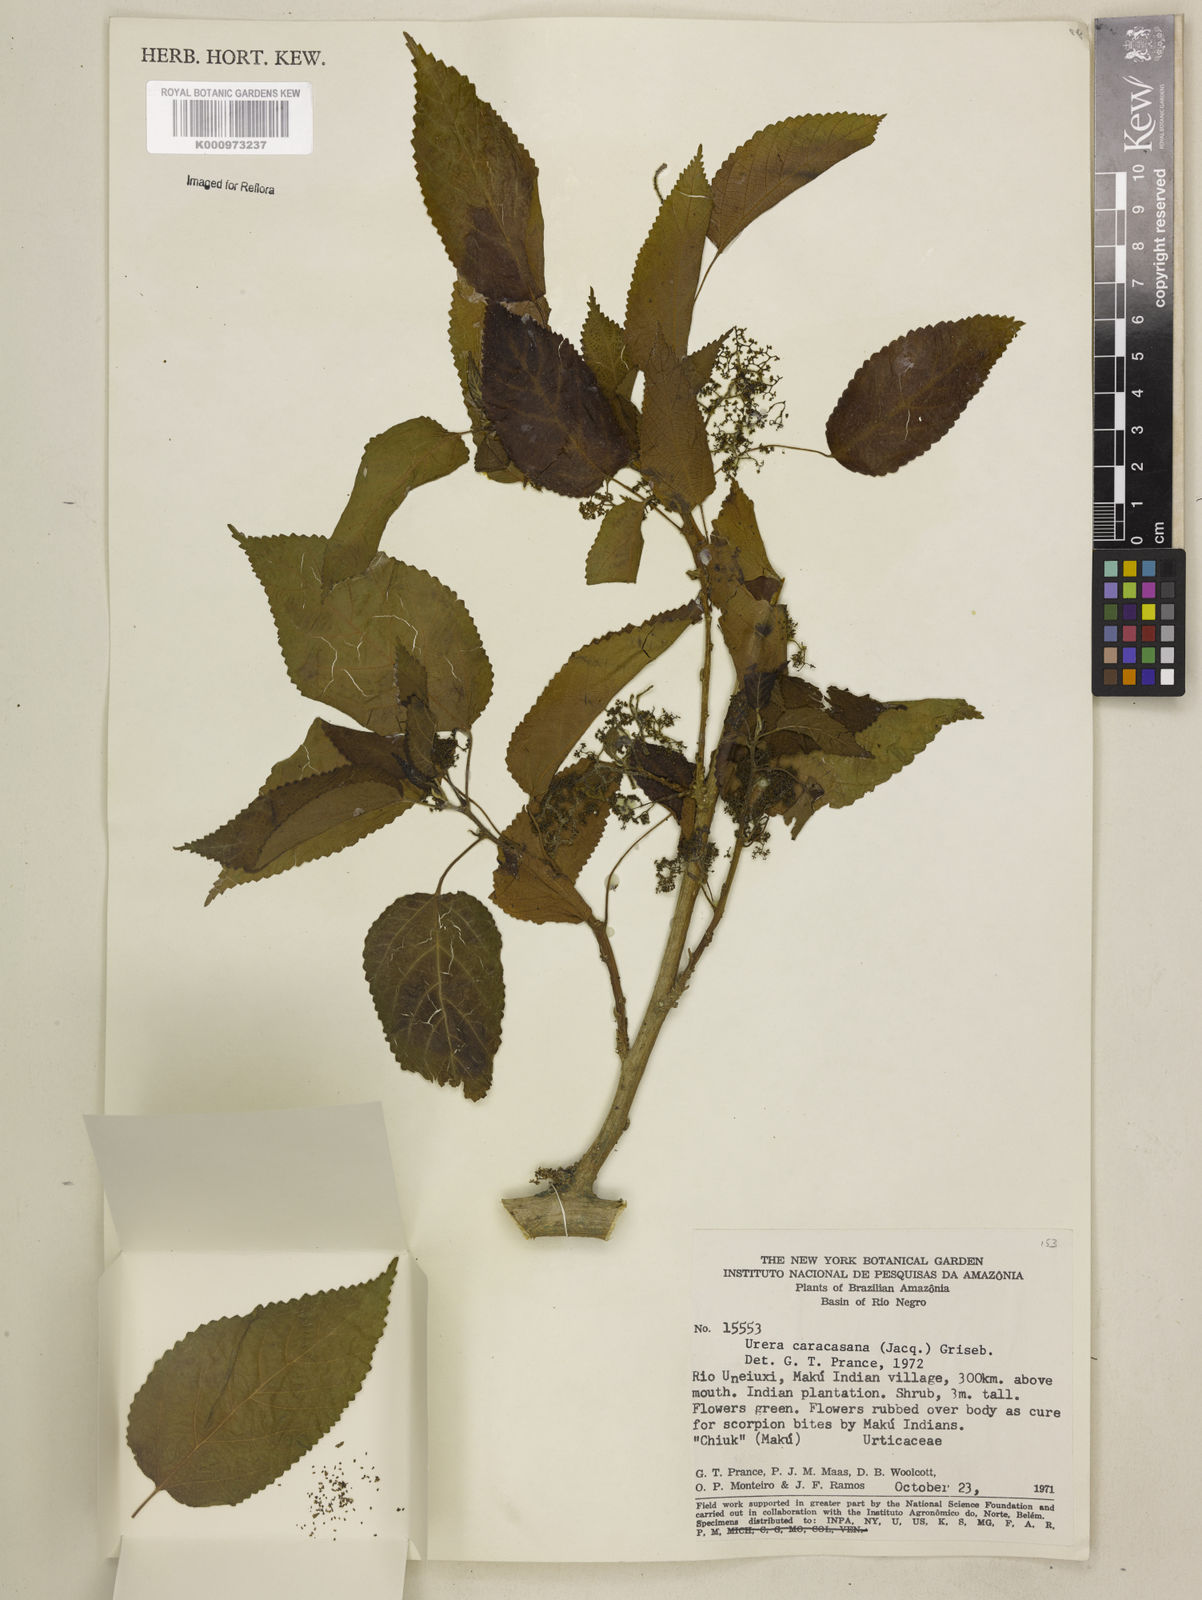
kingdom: Plantae
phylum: Tracheophyta
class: Magnoliopsida
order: Rosales
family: Urticaceae
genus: Urera
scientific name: Urera caracasana
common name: Flameberry
